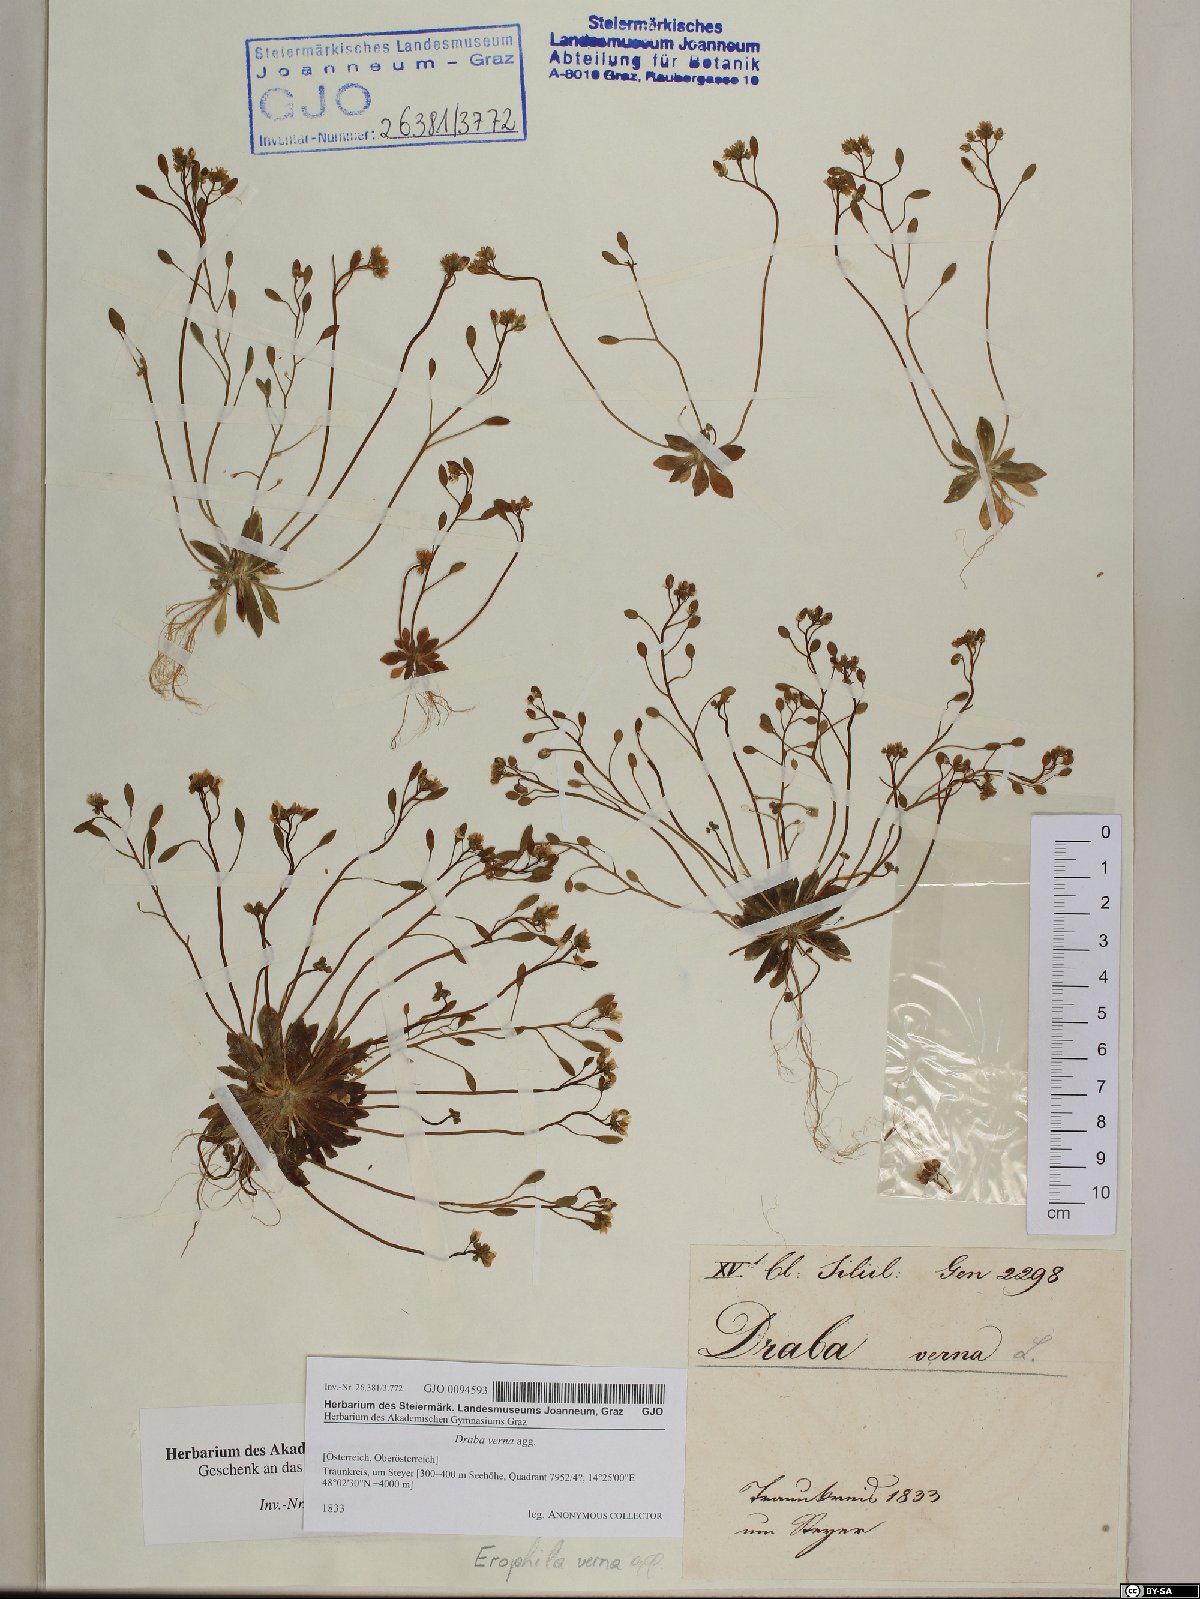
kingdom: Plantae
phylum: Tracheophyta
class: Magnoliopsida
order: Brassicales
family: Brassicaceae
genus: Draba
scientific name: Draba verna
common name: Spring draba
